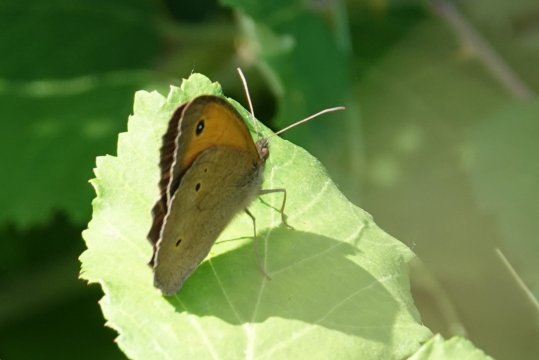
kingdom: Animalia
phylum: Arthropoda
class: Insecta
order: Lepidoptera
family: Nymphalidae
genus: Maniola
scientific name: Maniola jurtina
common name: Meadow Brown
